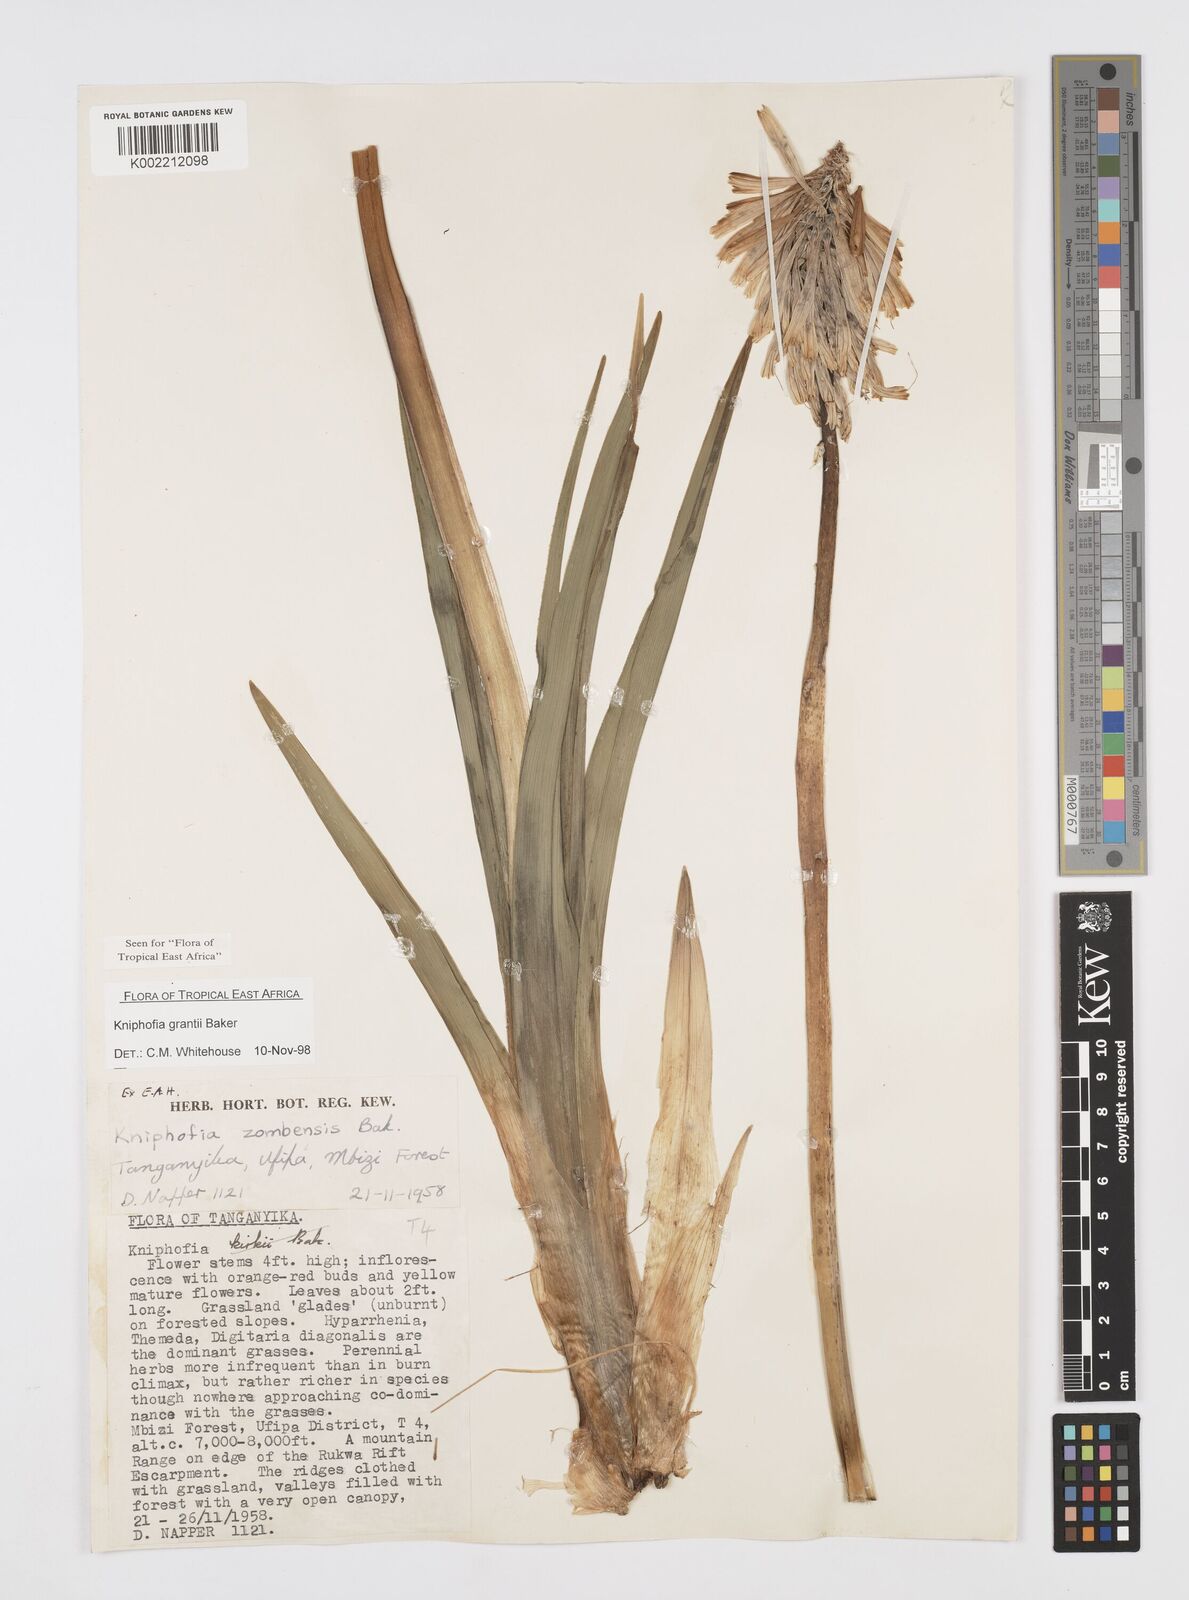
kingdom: Plantae
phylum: Tracheophyta
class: Liliopsida
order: Asparagales
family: Asphodelaceae
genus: Kniphofia
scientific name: Kniphofia grantii
